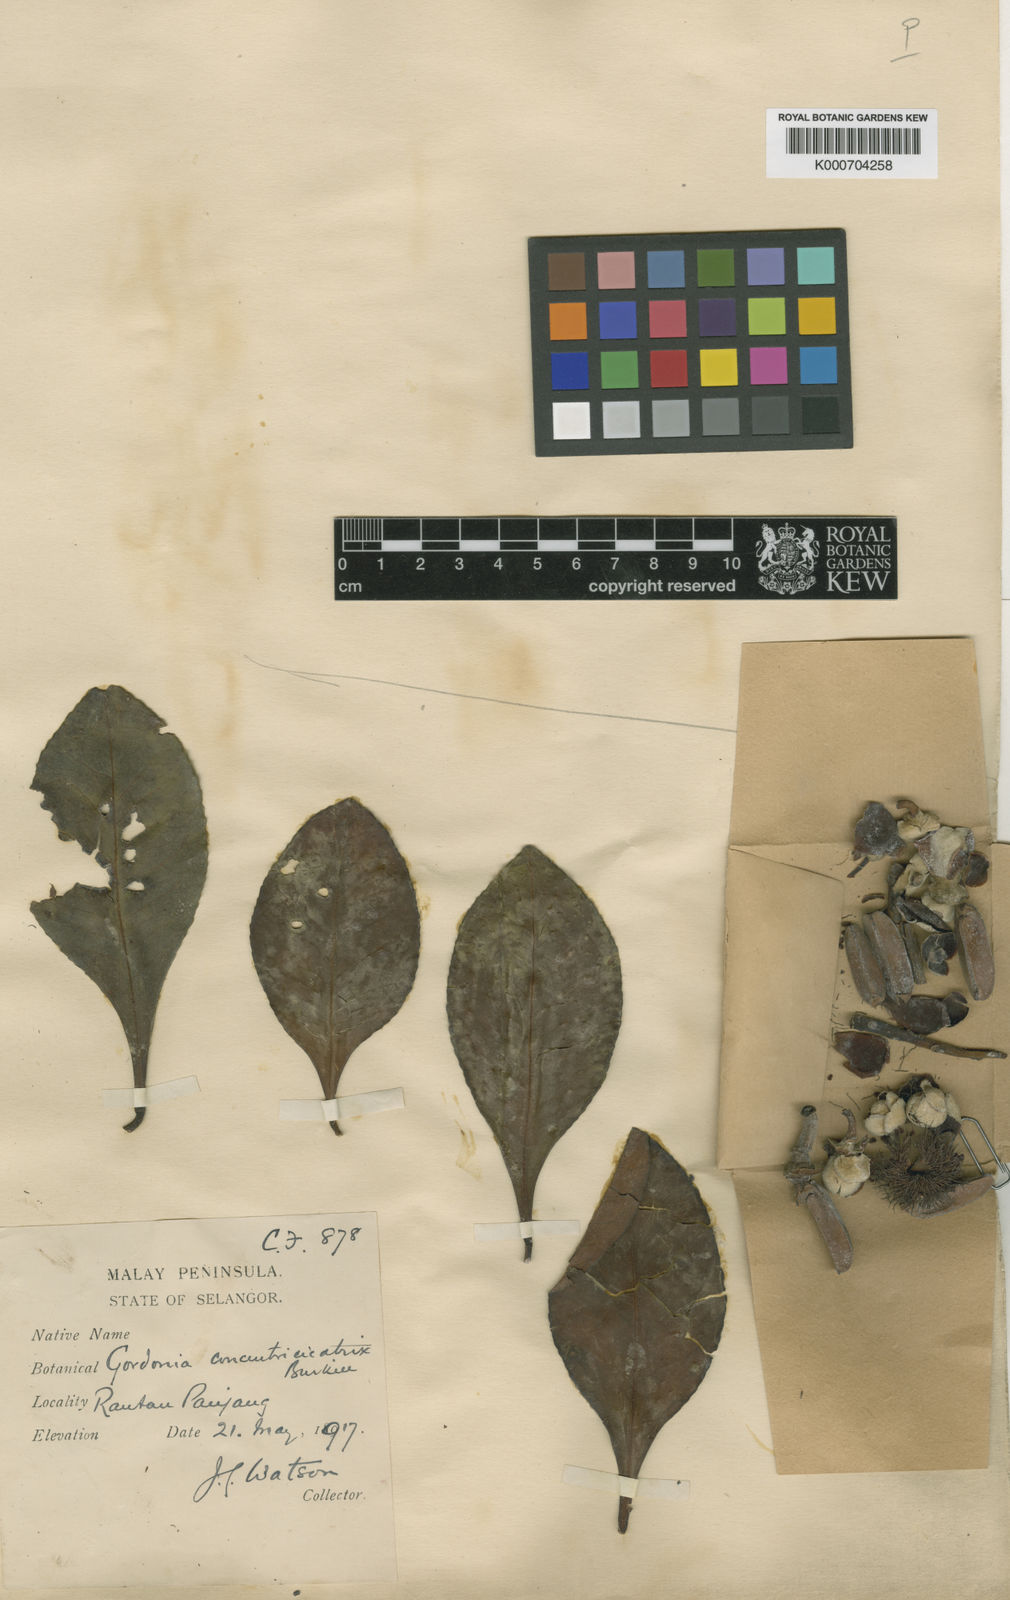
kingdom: Plantae
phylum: Tracheophyta
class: Magnoliopsida
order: Ericales
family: Theaceae
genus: Polyspora
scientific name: Polyspora concentricicatrix
